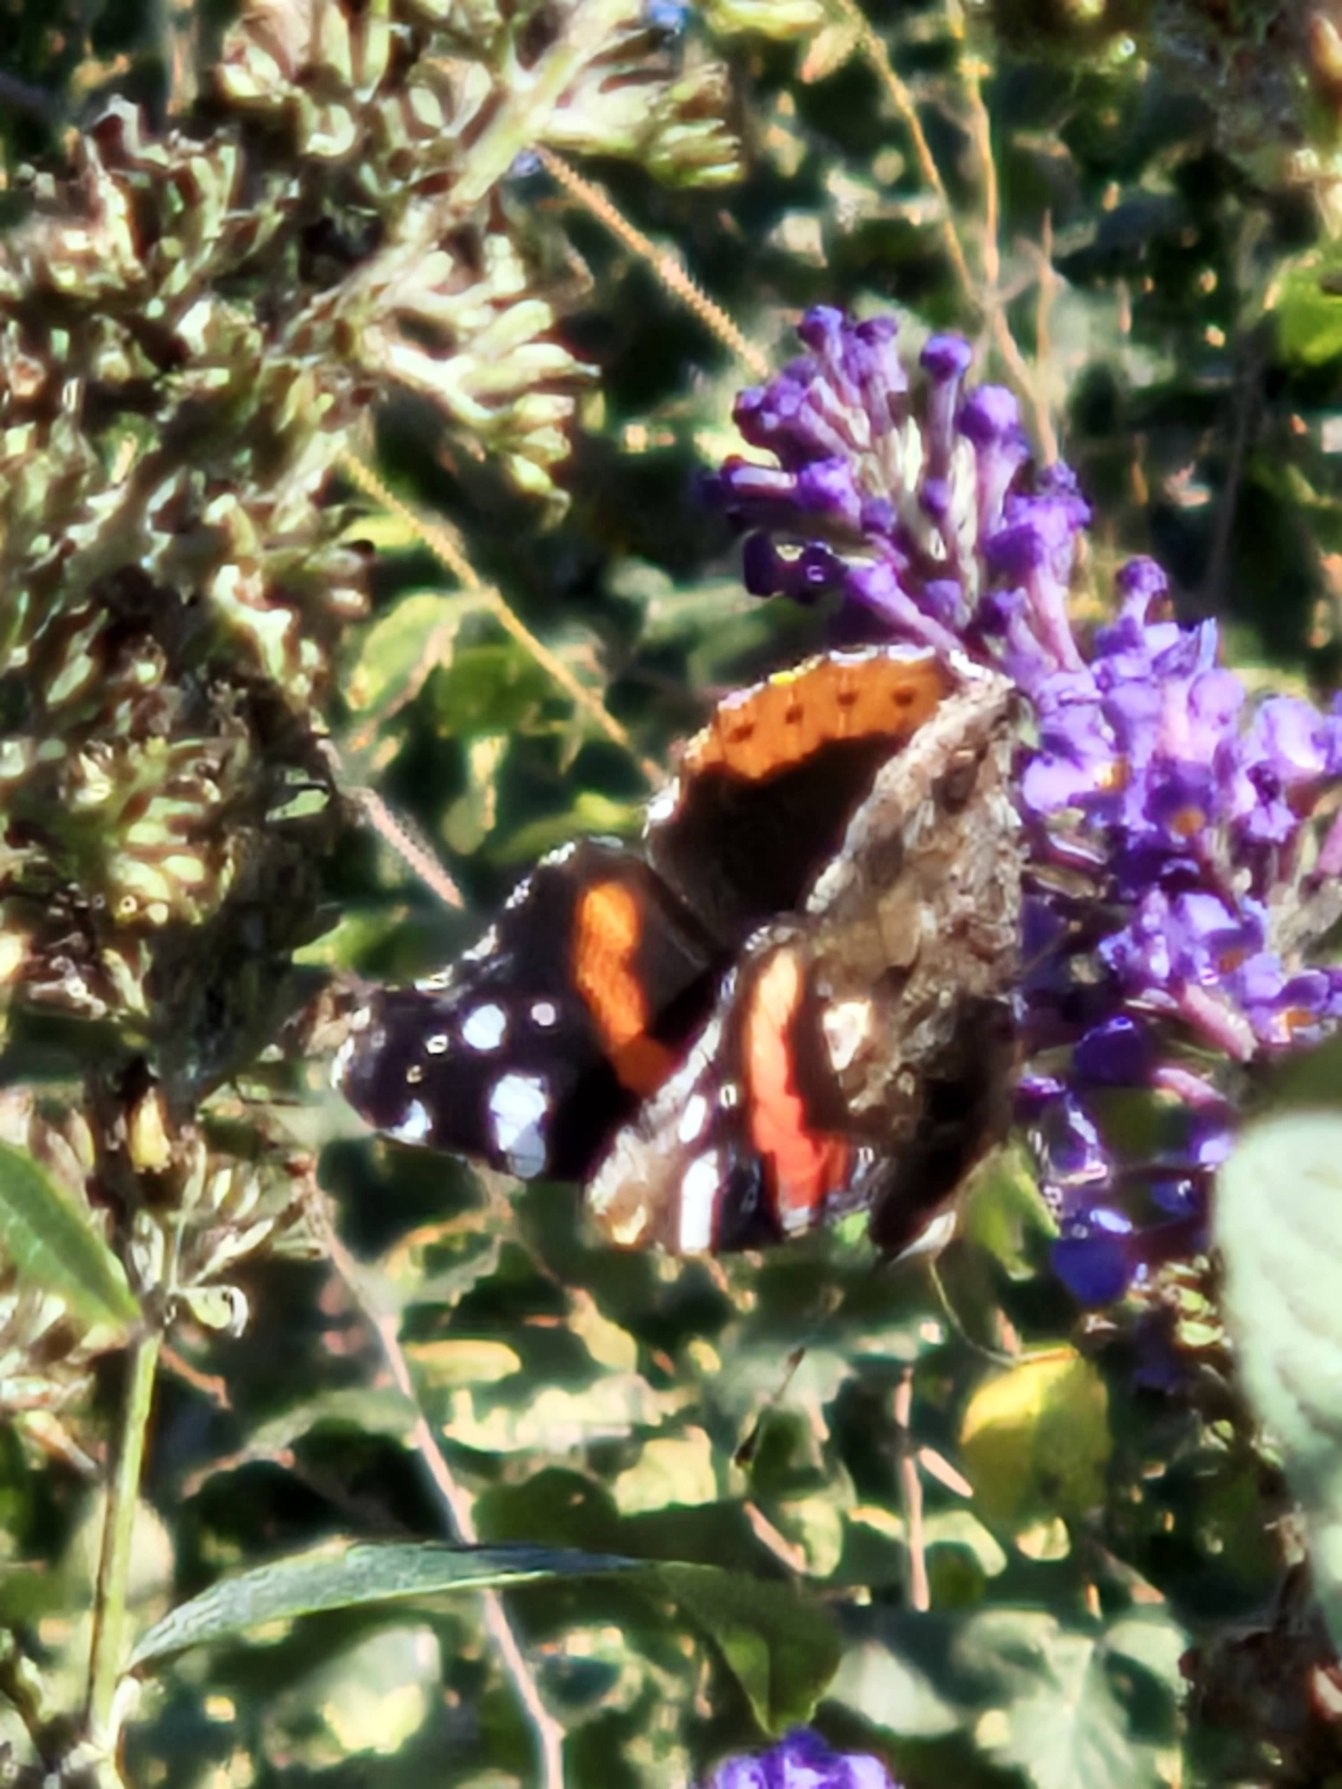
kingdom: Animalia
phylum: Arthropoda
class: Insecta
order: Lepidoptera
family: Nymphalidae
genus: Vanessa
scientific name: Vanessa atalanta
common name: Admiral
